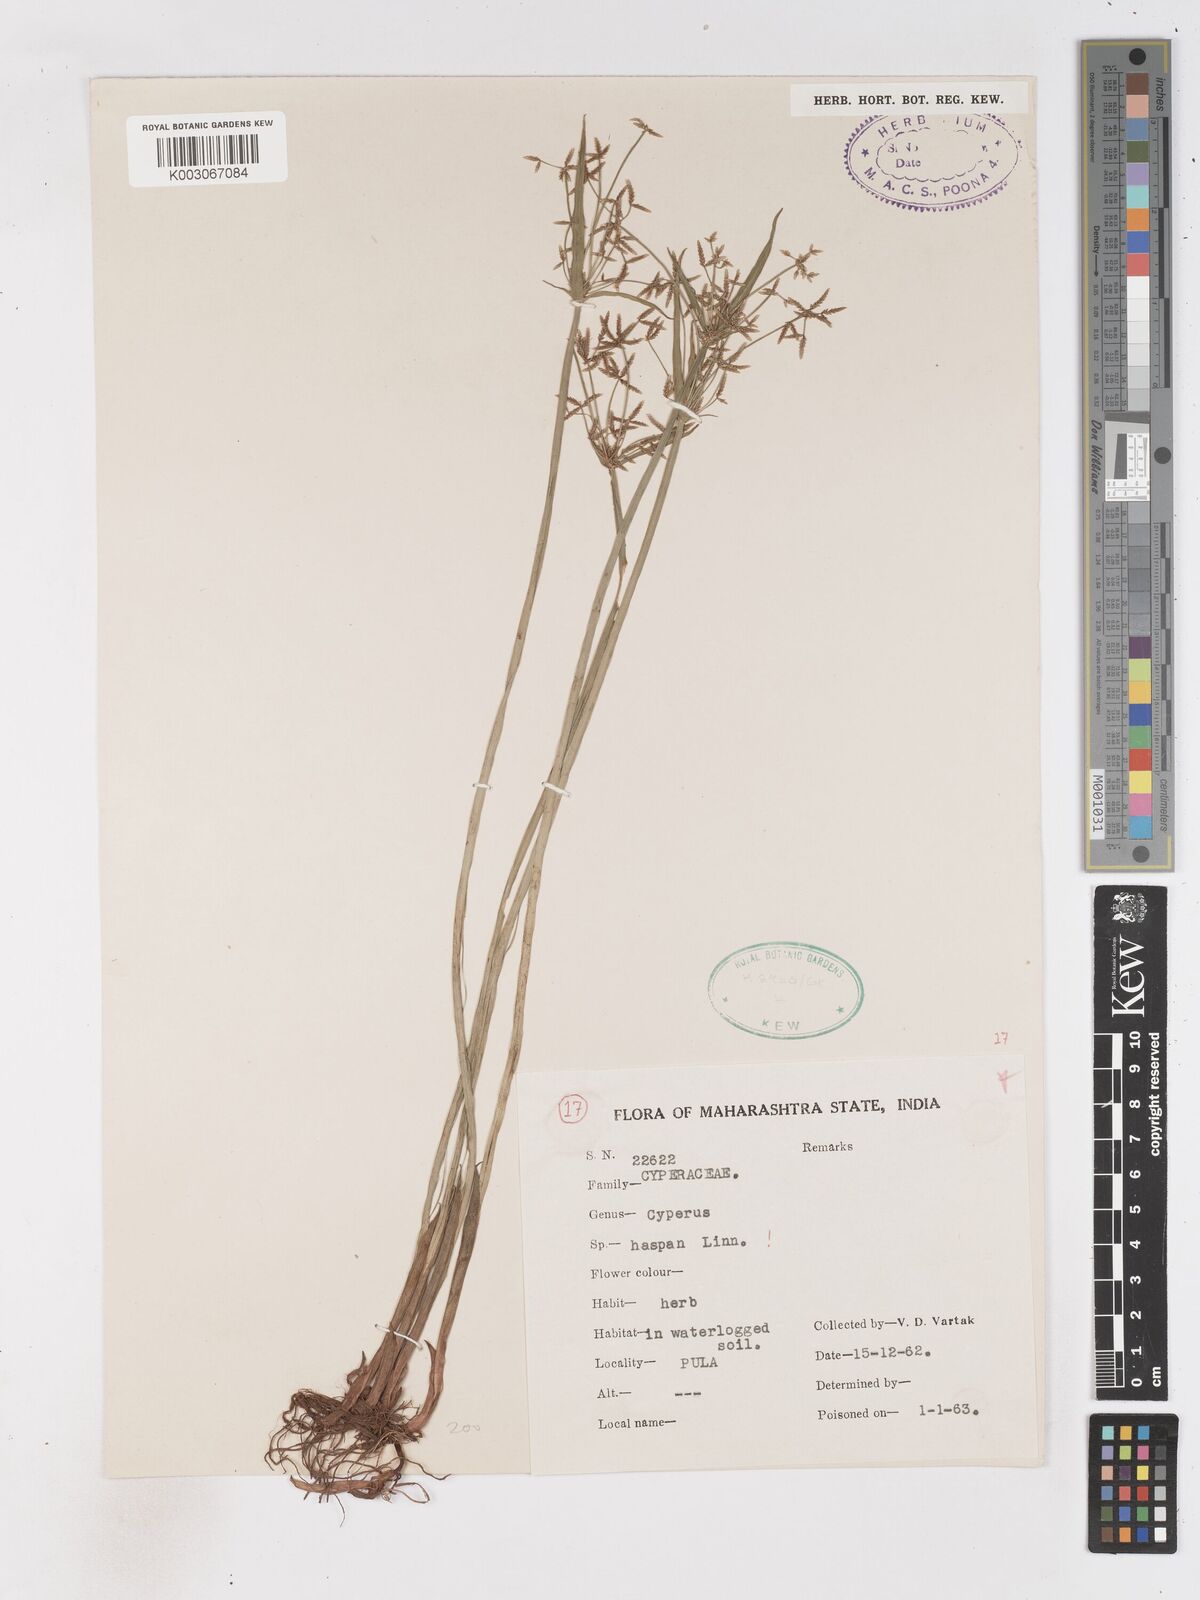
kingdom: Plantae
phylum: Tracheophyta
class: Liliopsida
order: Poales
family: Cyperaceae
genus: Cyperus
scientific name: Cyperus haspan
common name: Haspan flatsedge
